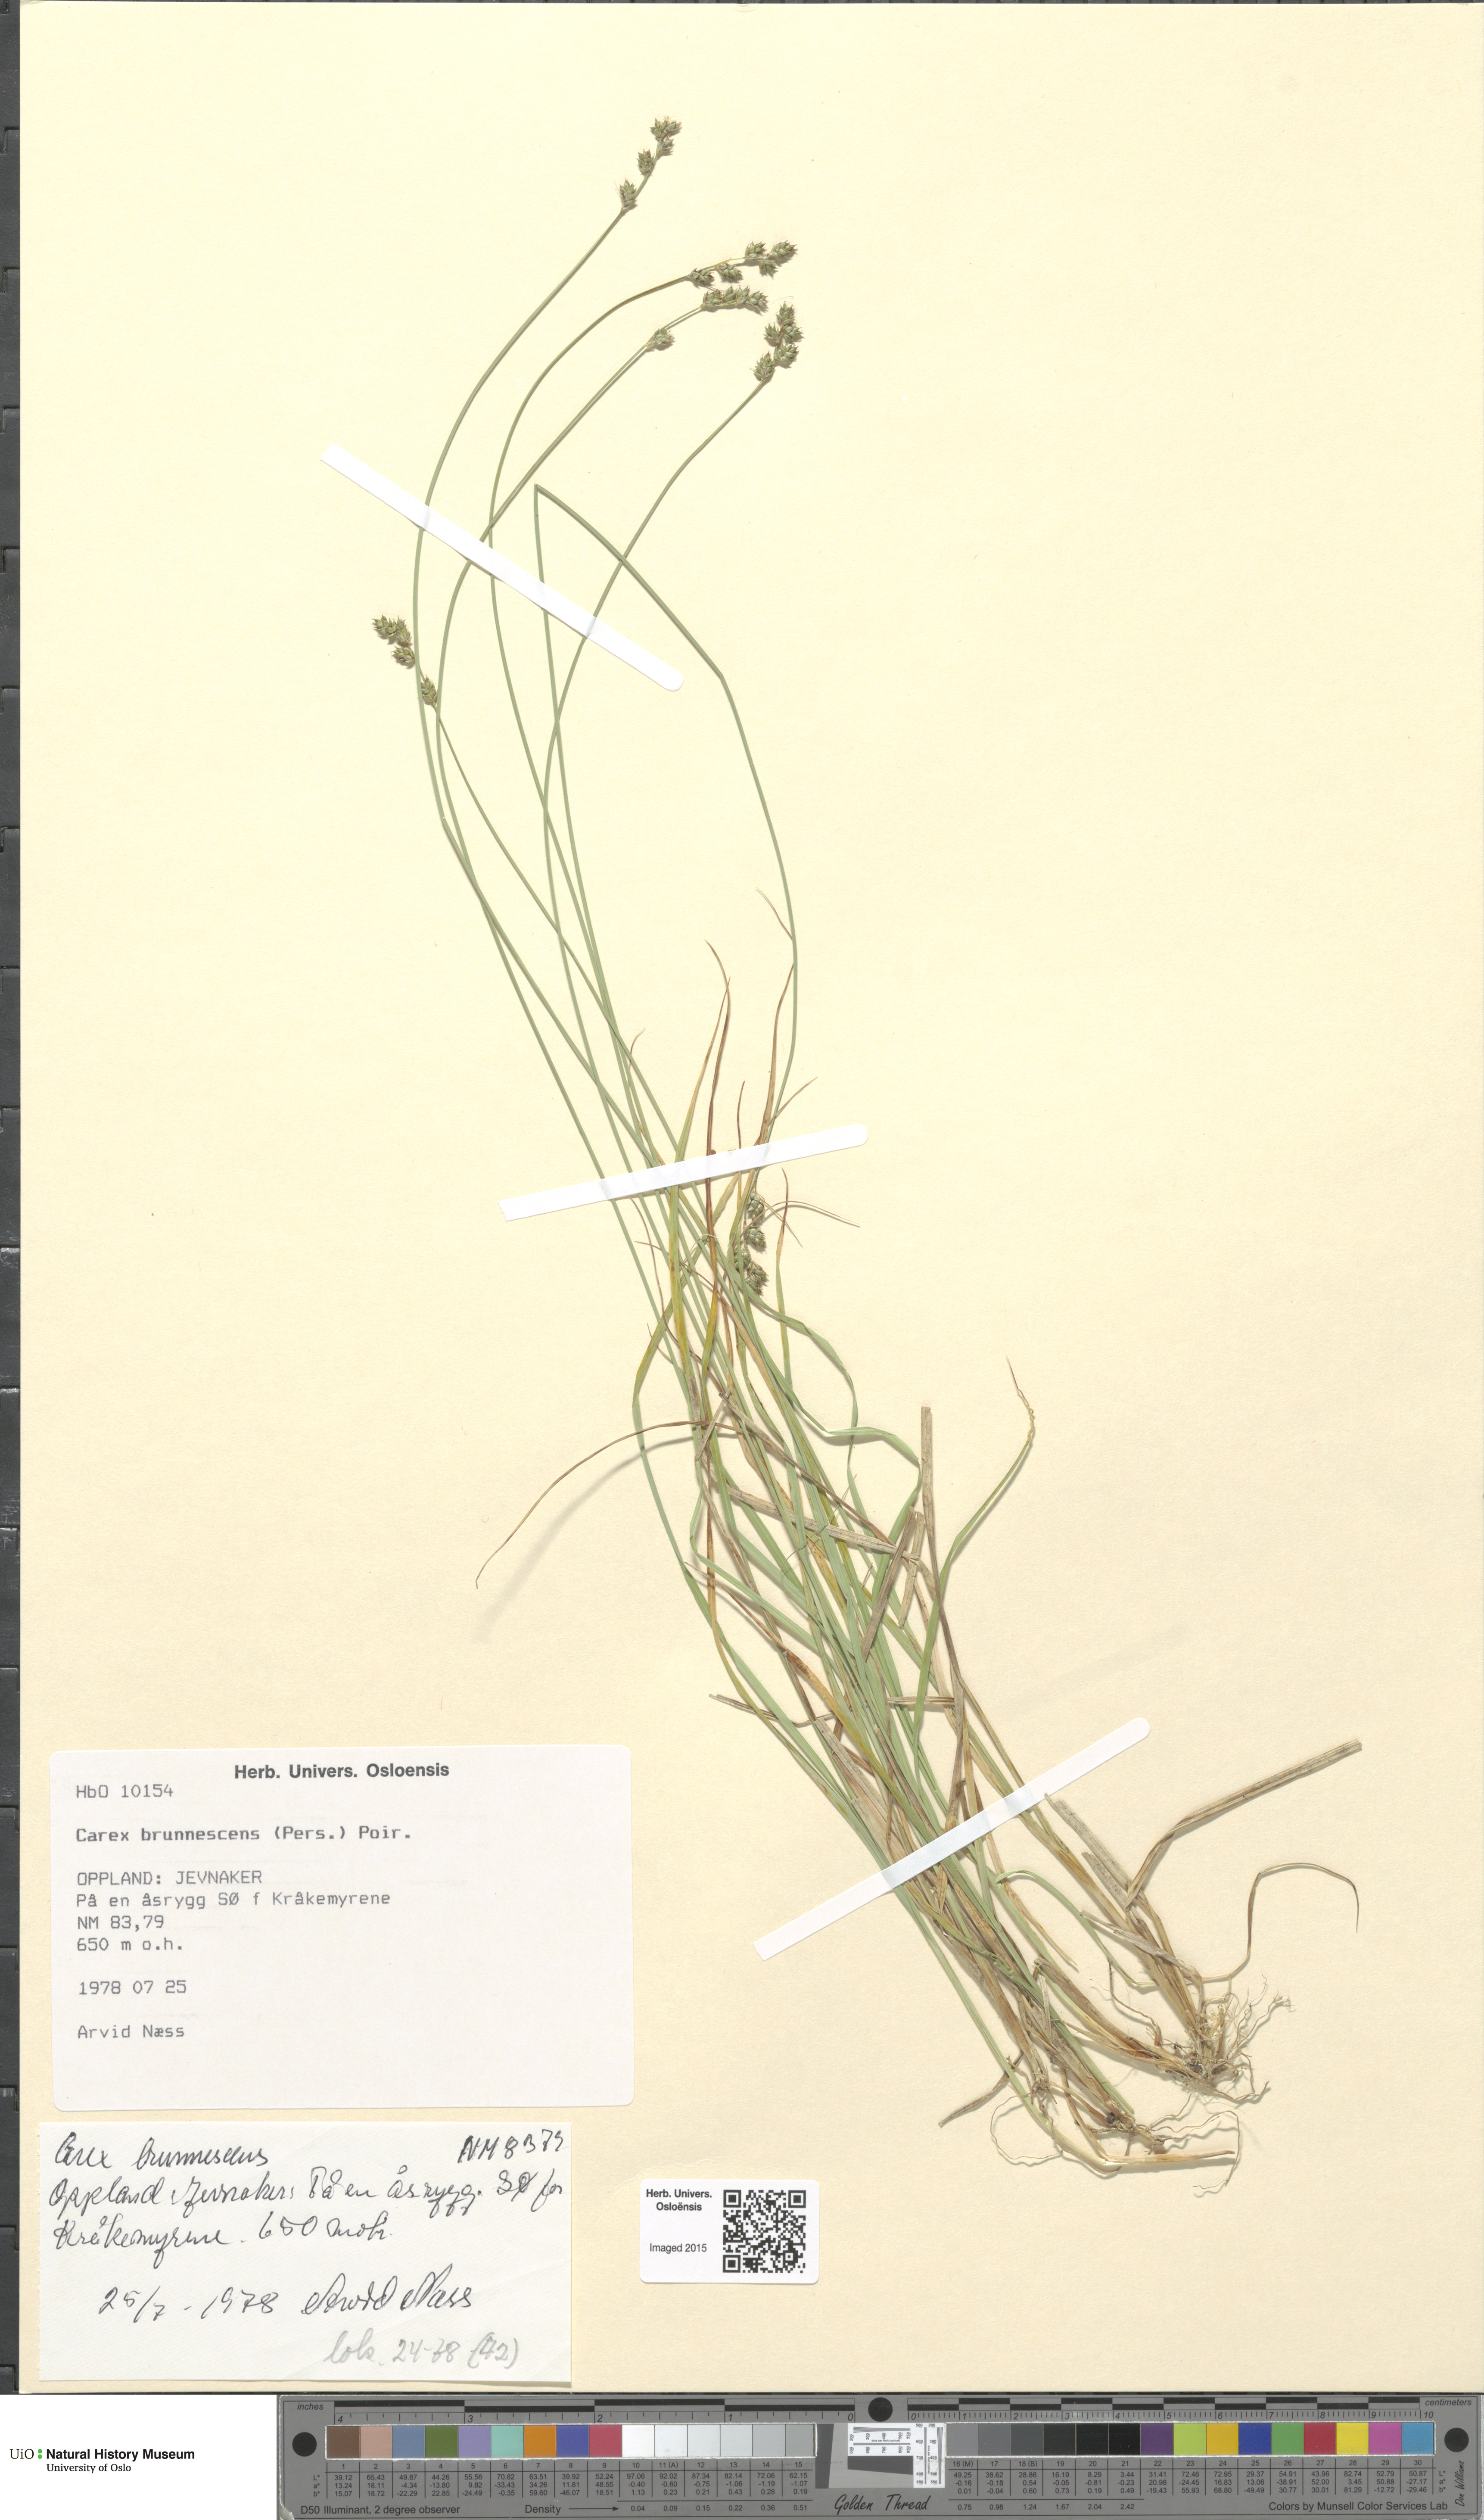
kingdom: Plantae
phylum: Tracheophyta
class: Liliopsida
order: Poales
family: Cyperaceae
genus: Carex
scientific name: Carex brunnescens
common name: Brown sedge
